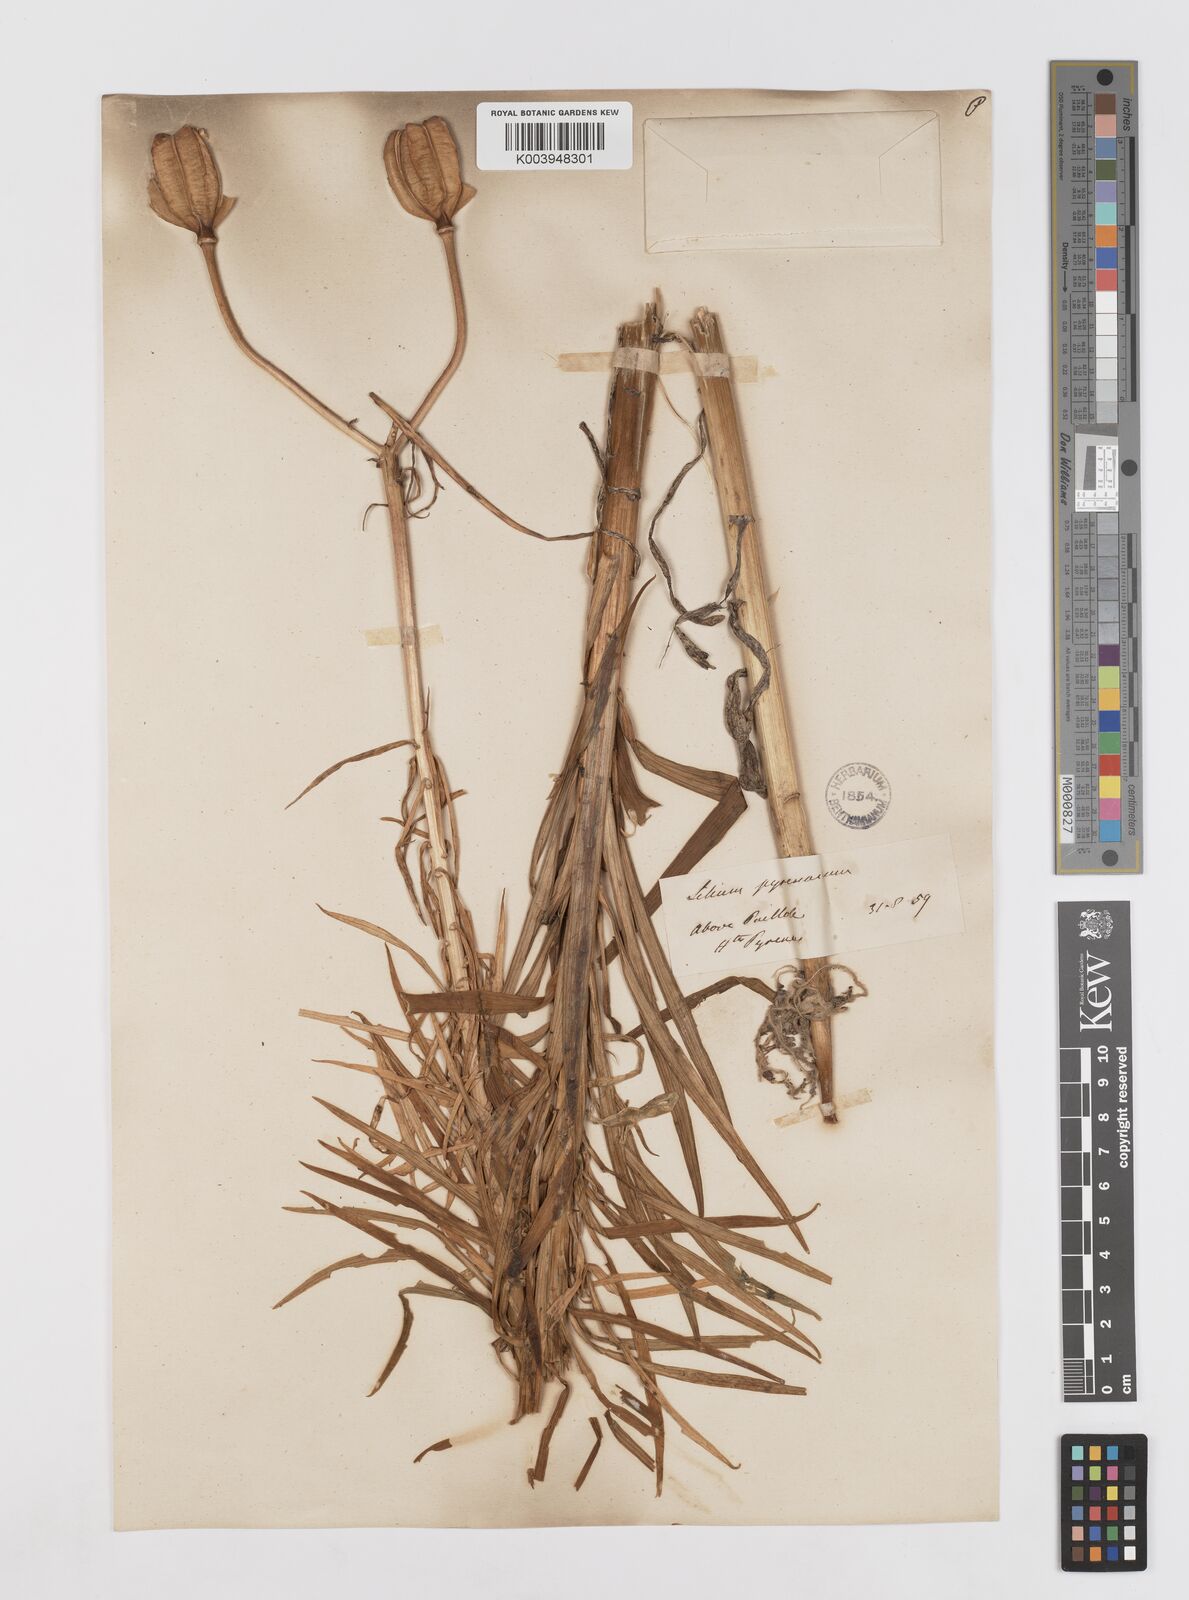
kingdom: Plantae
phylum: Tracheophyta
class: Liliopsida
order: Liliales
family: Liliaceae
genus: Lilium
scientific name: Lilium pyrenaicum
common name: Pyrenean lily
